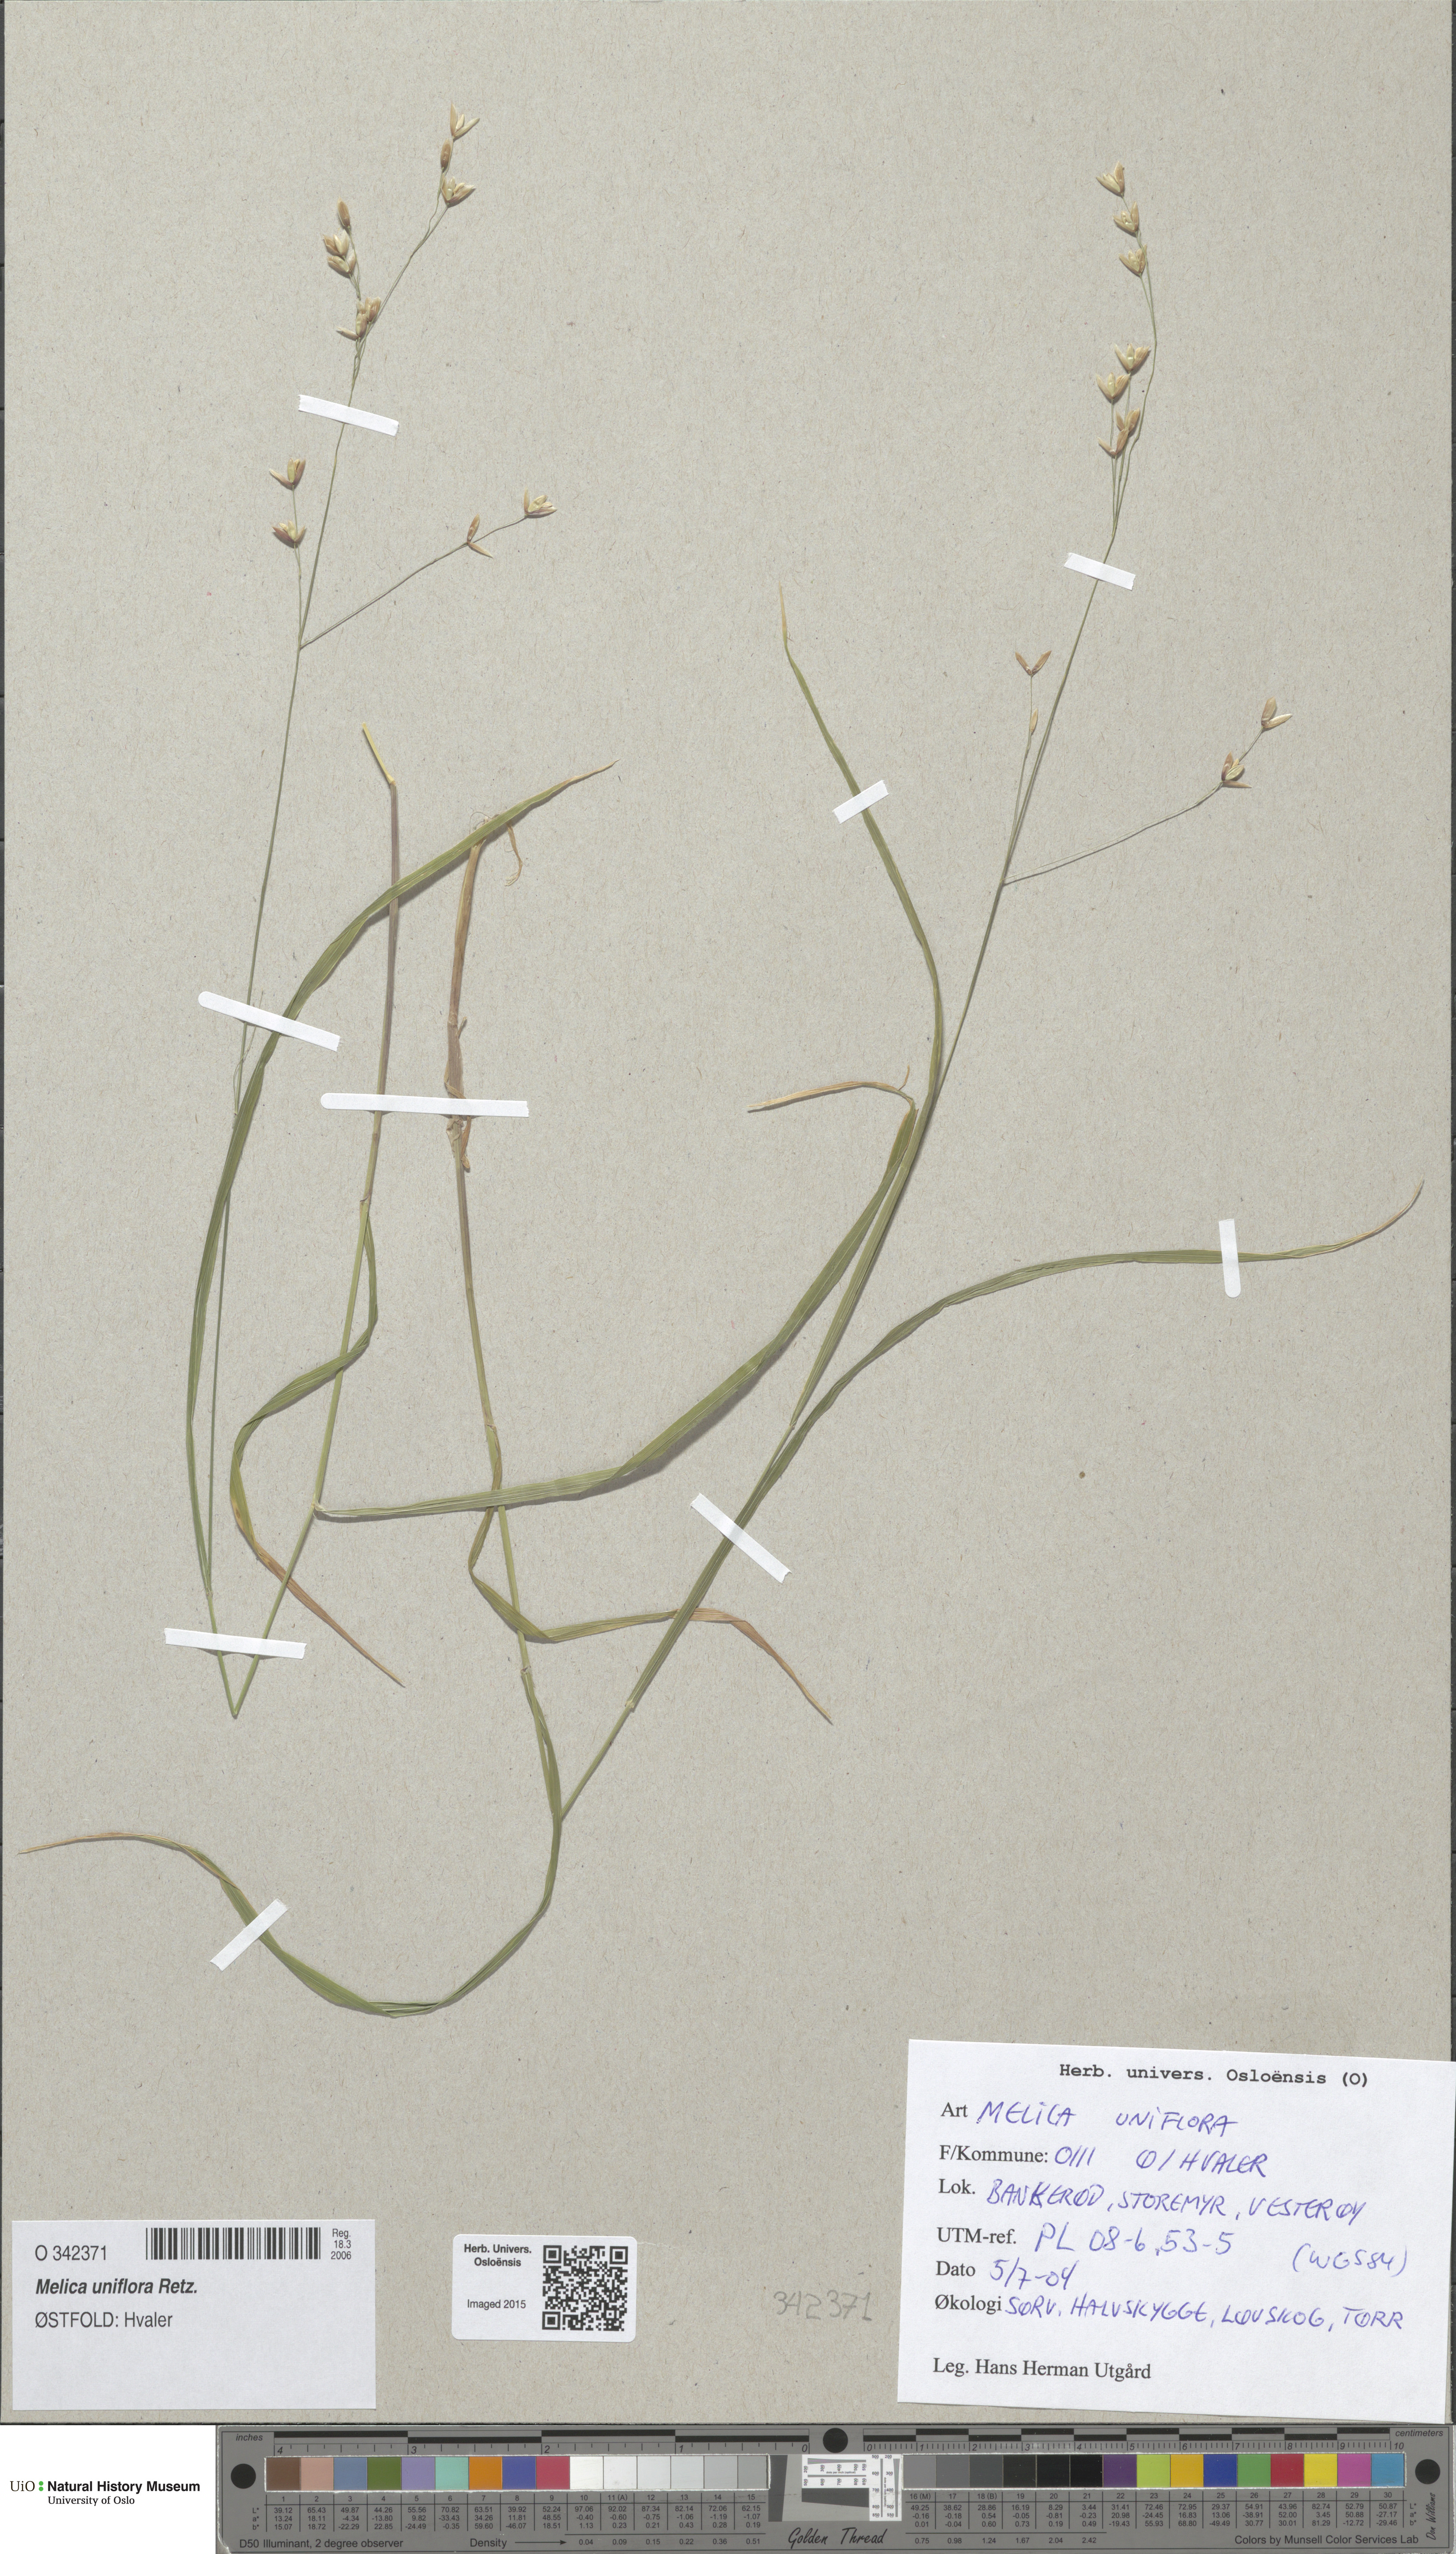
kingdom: Plantae
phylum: Tracheophyta
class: Liliopsida
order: Poales
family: Poaceae
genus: Melica
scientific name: Melica uniflora
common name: Wood melick
